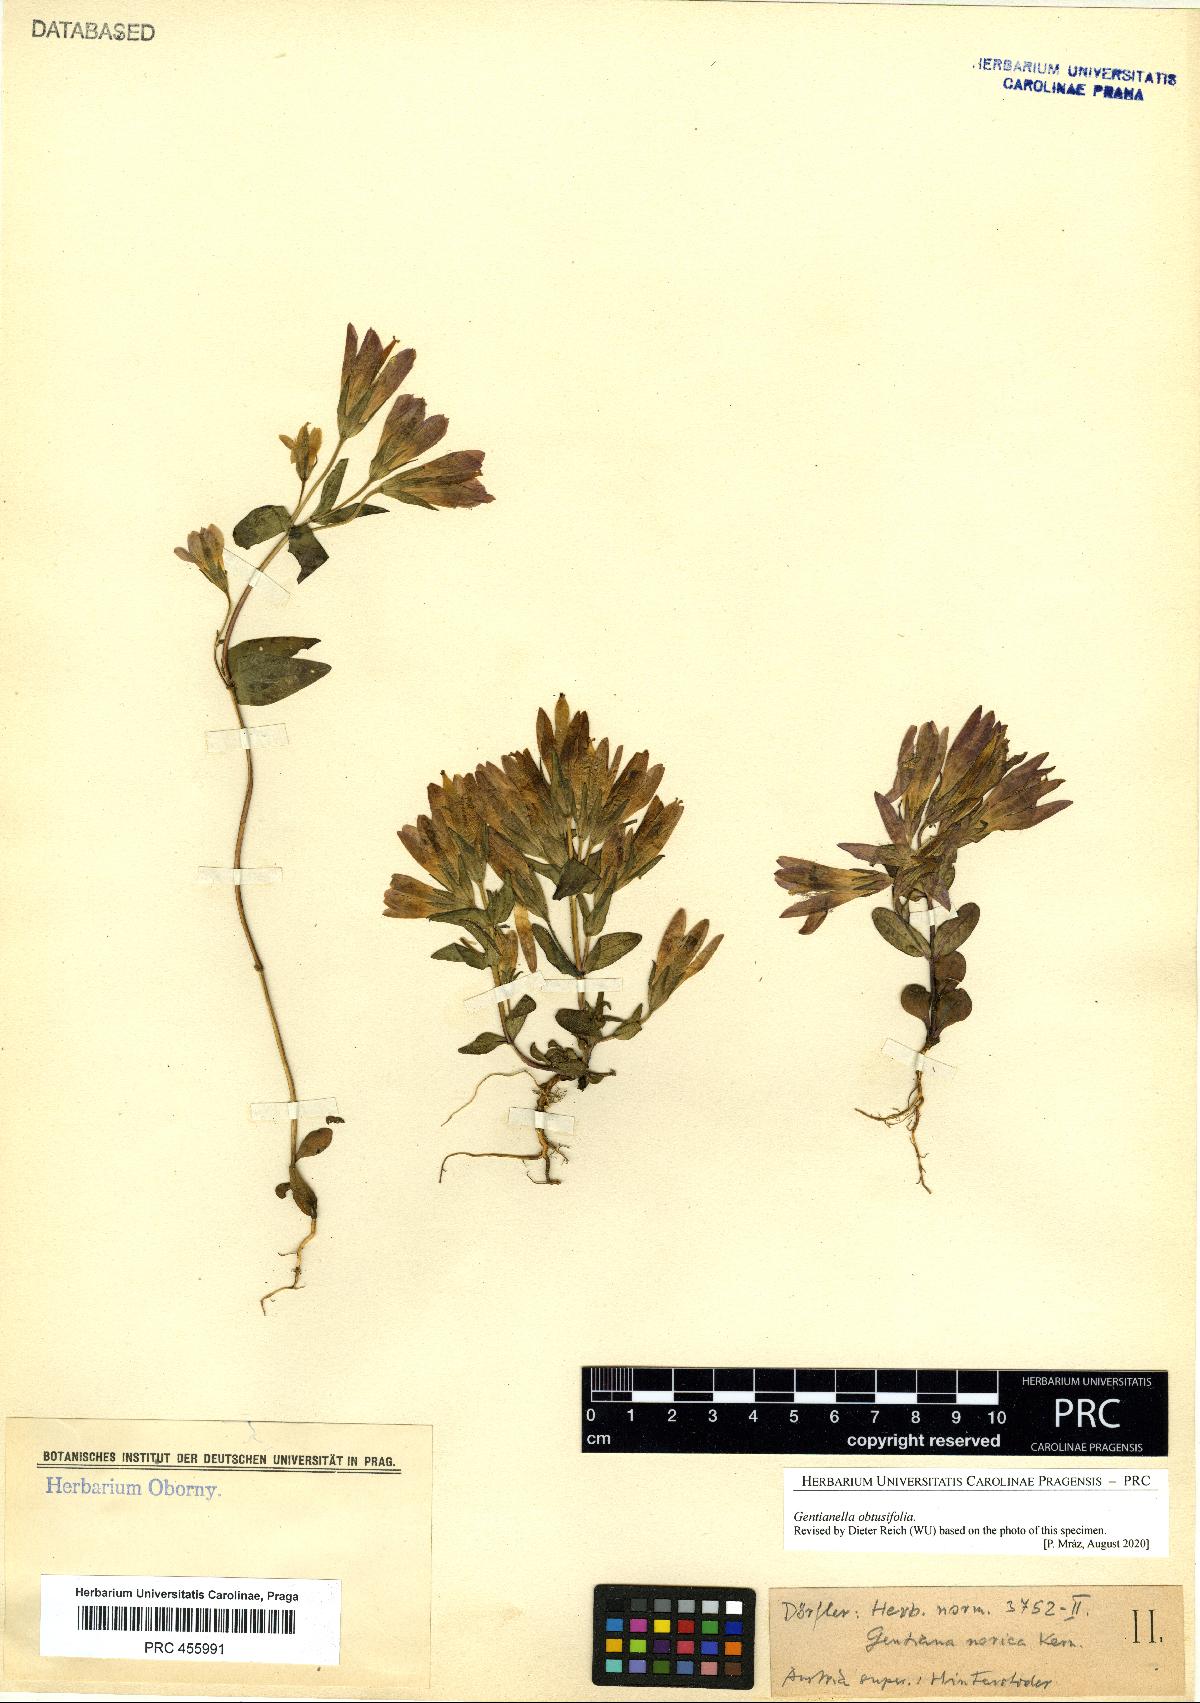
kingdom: Plantae
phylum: Tracheophyta
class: Magnoliopsida
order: Gentianales
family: Gentianaceae
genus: Gentianella
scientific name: Gentianella obtusifolia
